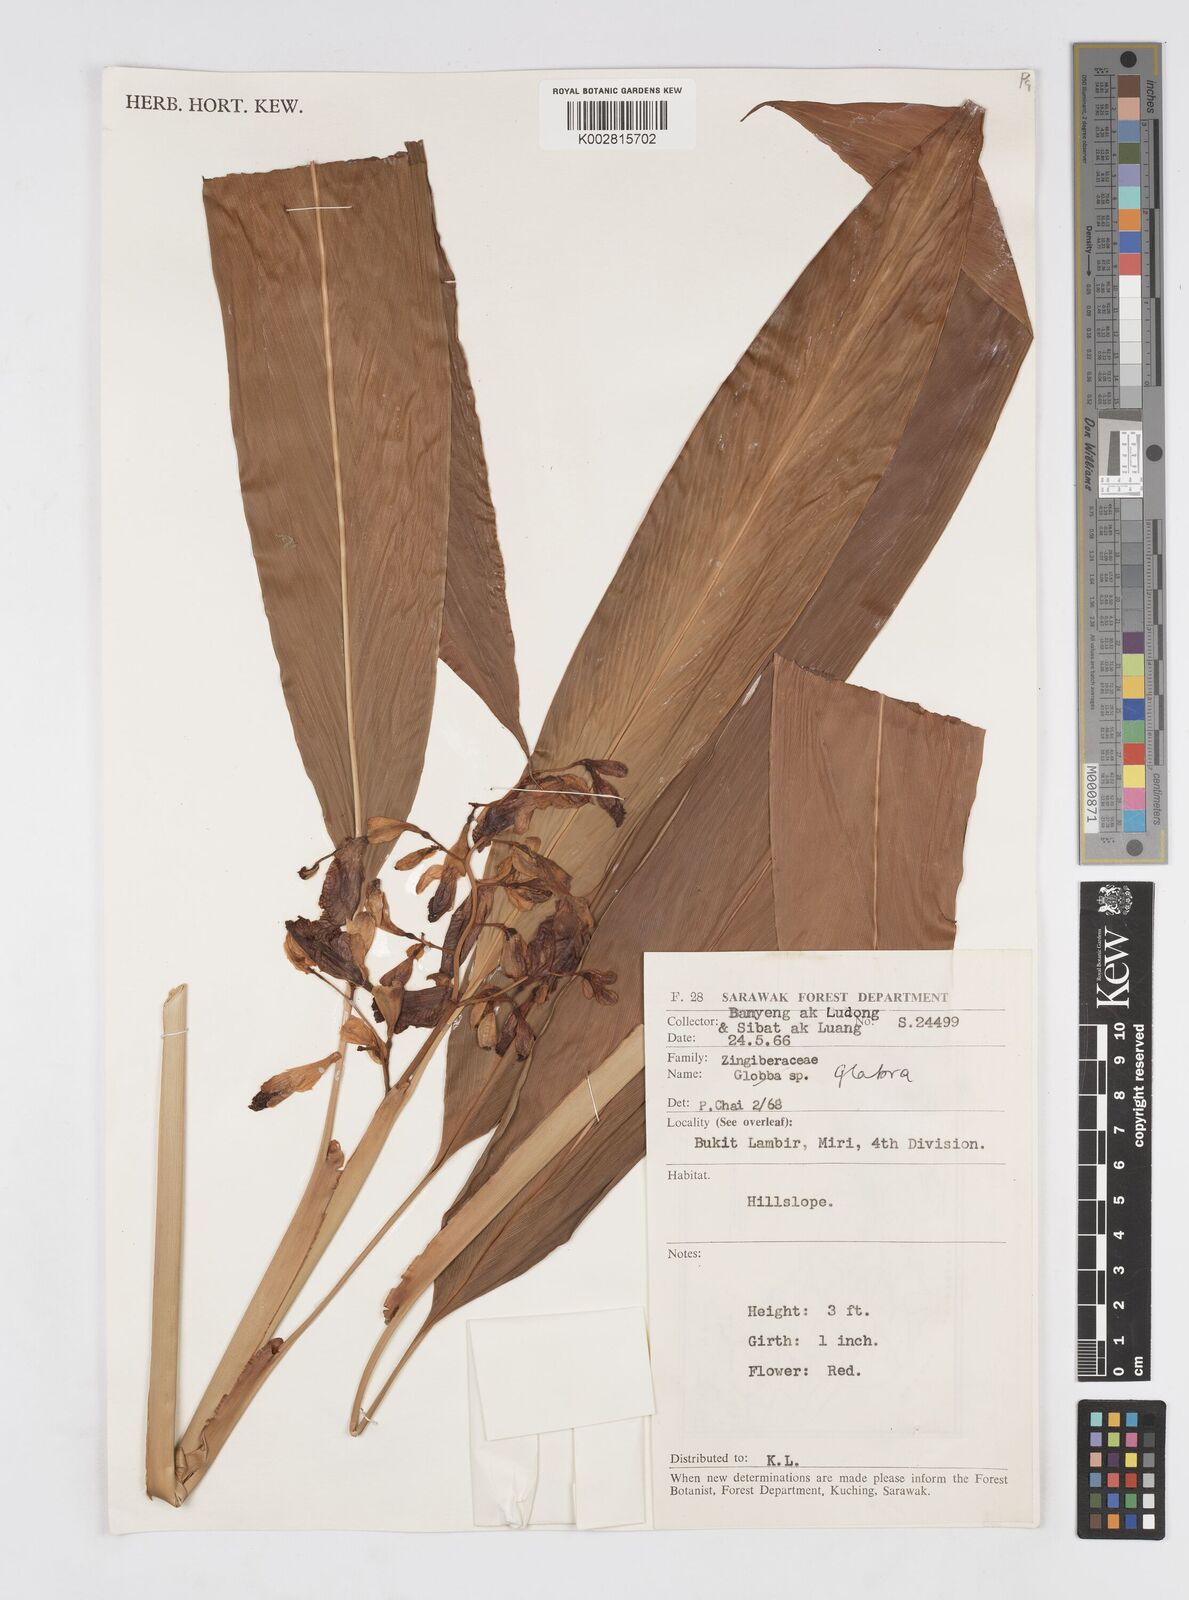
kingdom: Plantae
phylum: Tracheophyta
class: Liliopsida
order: Zingiberales
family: Zingiberaceae
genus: Alpinia
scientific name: Alpinia glabra
